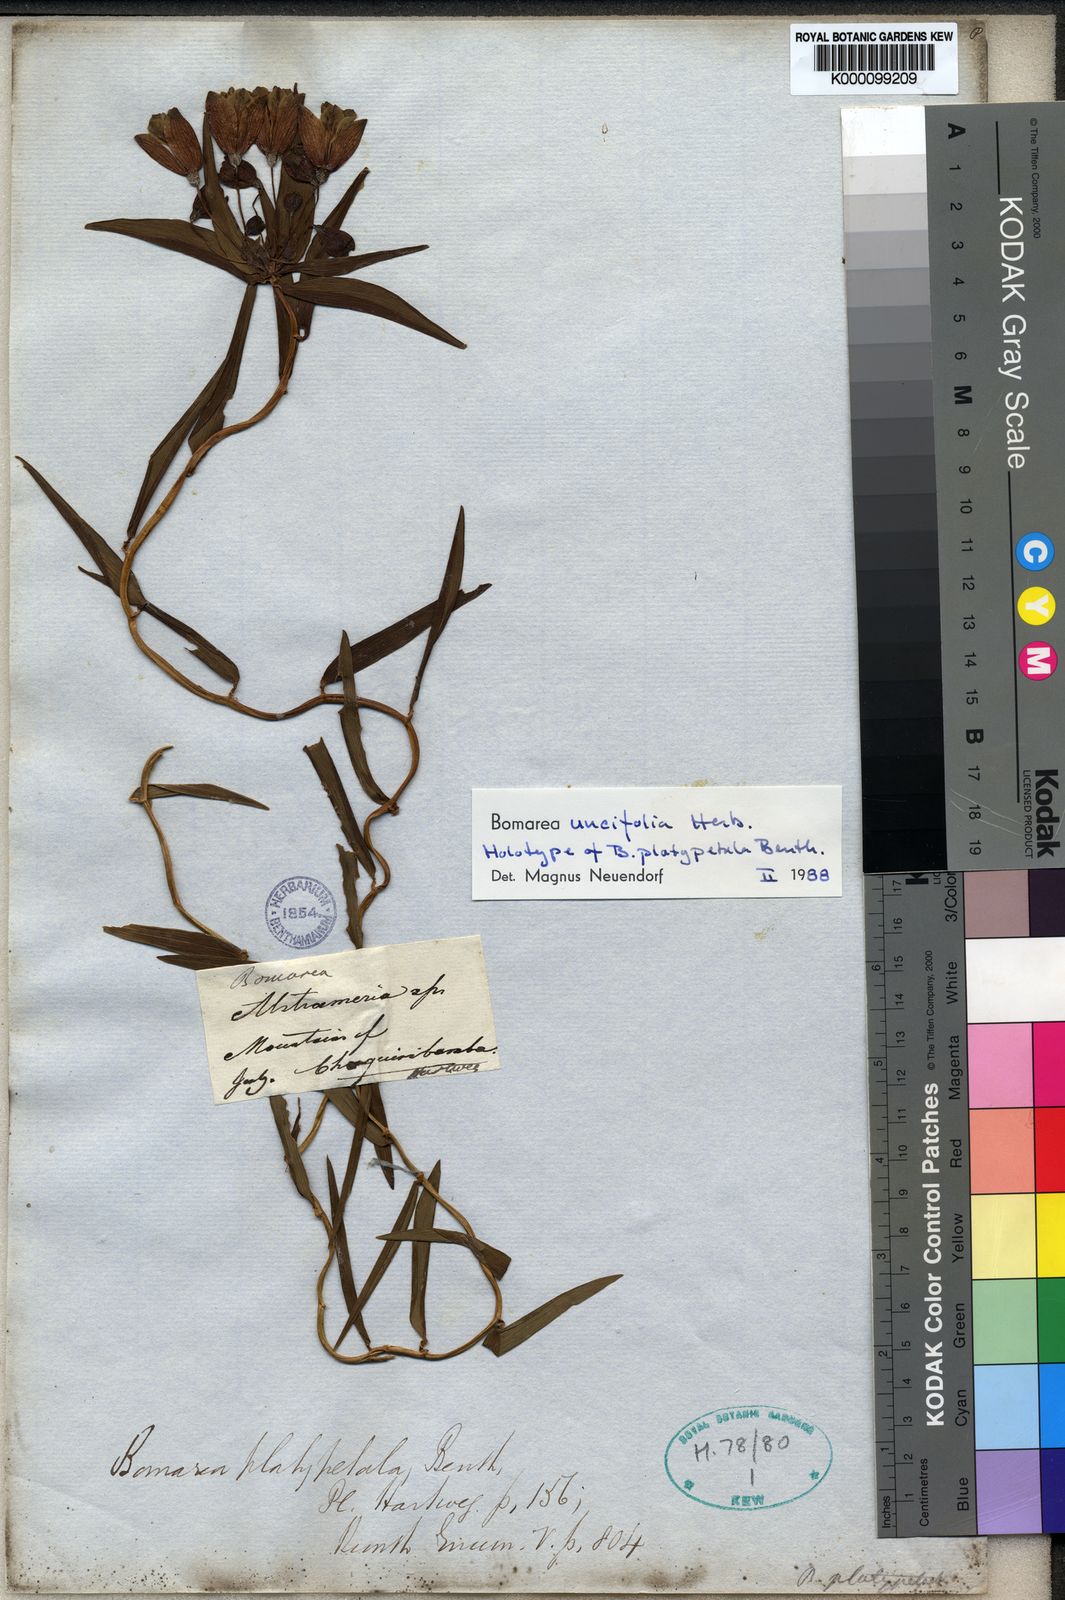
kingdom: Plantae
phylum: Tracheophyta
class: Liliopsida
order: Liliales
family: Alstroemeriaceae
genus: Bomarea
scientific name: Bomarea uncifolia
